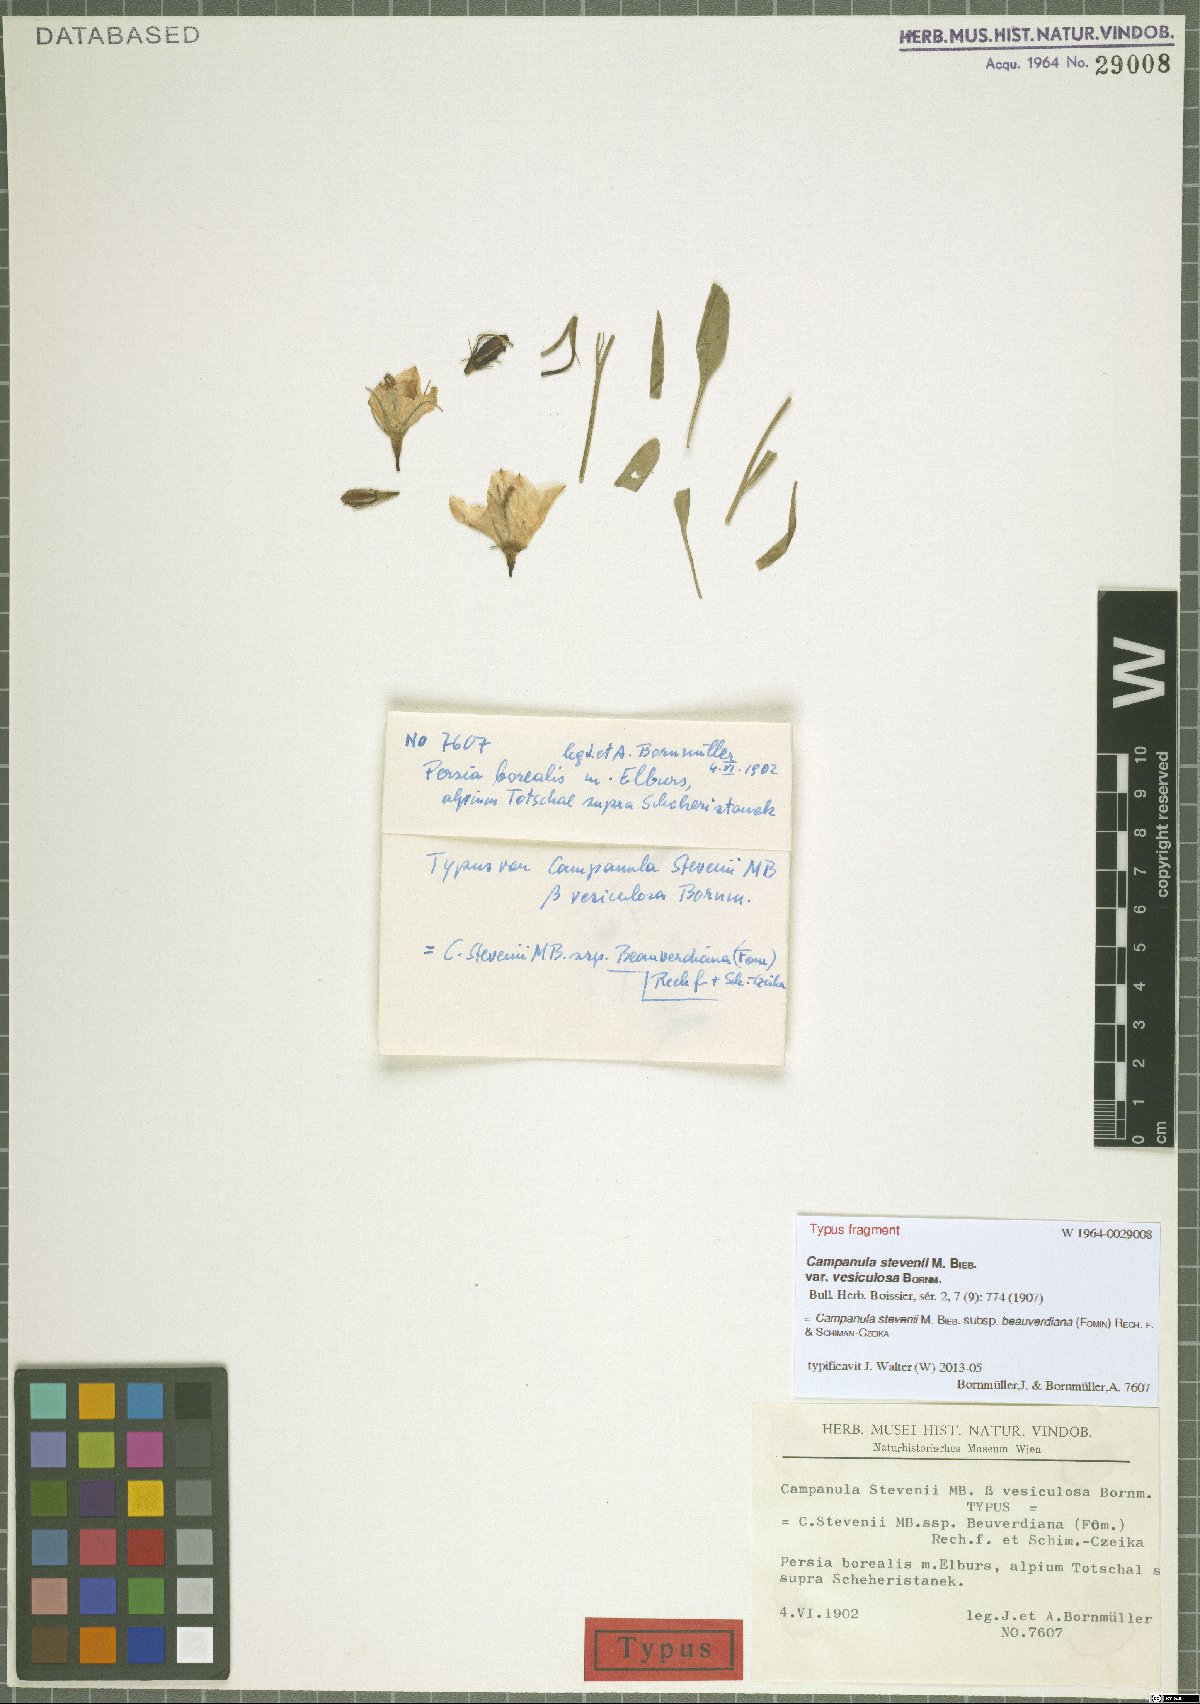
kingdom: Plantae
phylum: Tracheophyta
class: Magnoliopsida
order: Asterales
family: Campanulaceae
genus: Campanula
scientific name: Campanula stevenii
